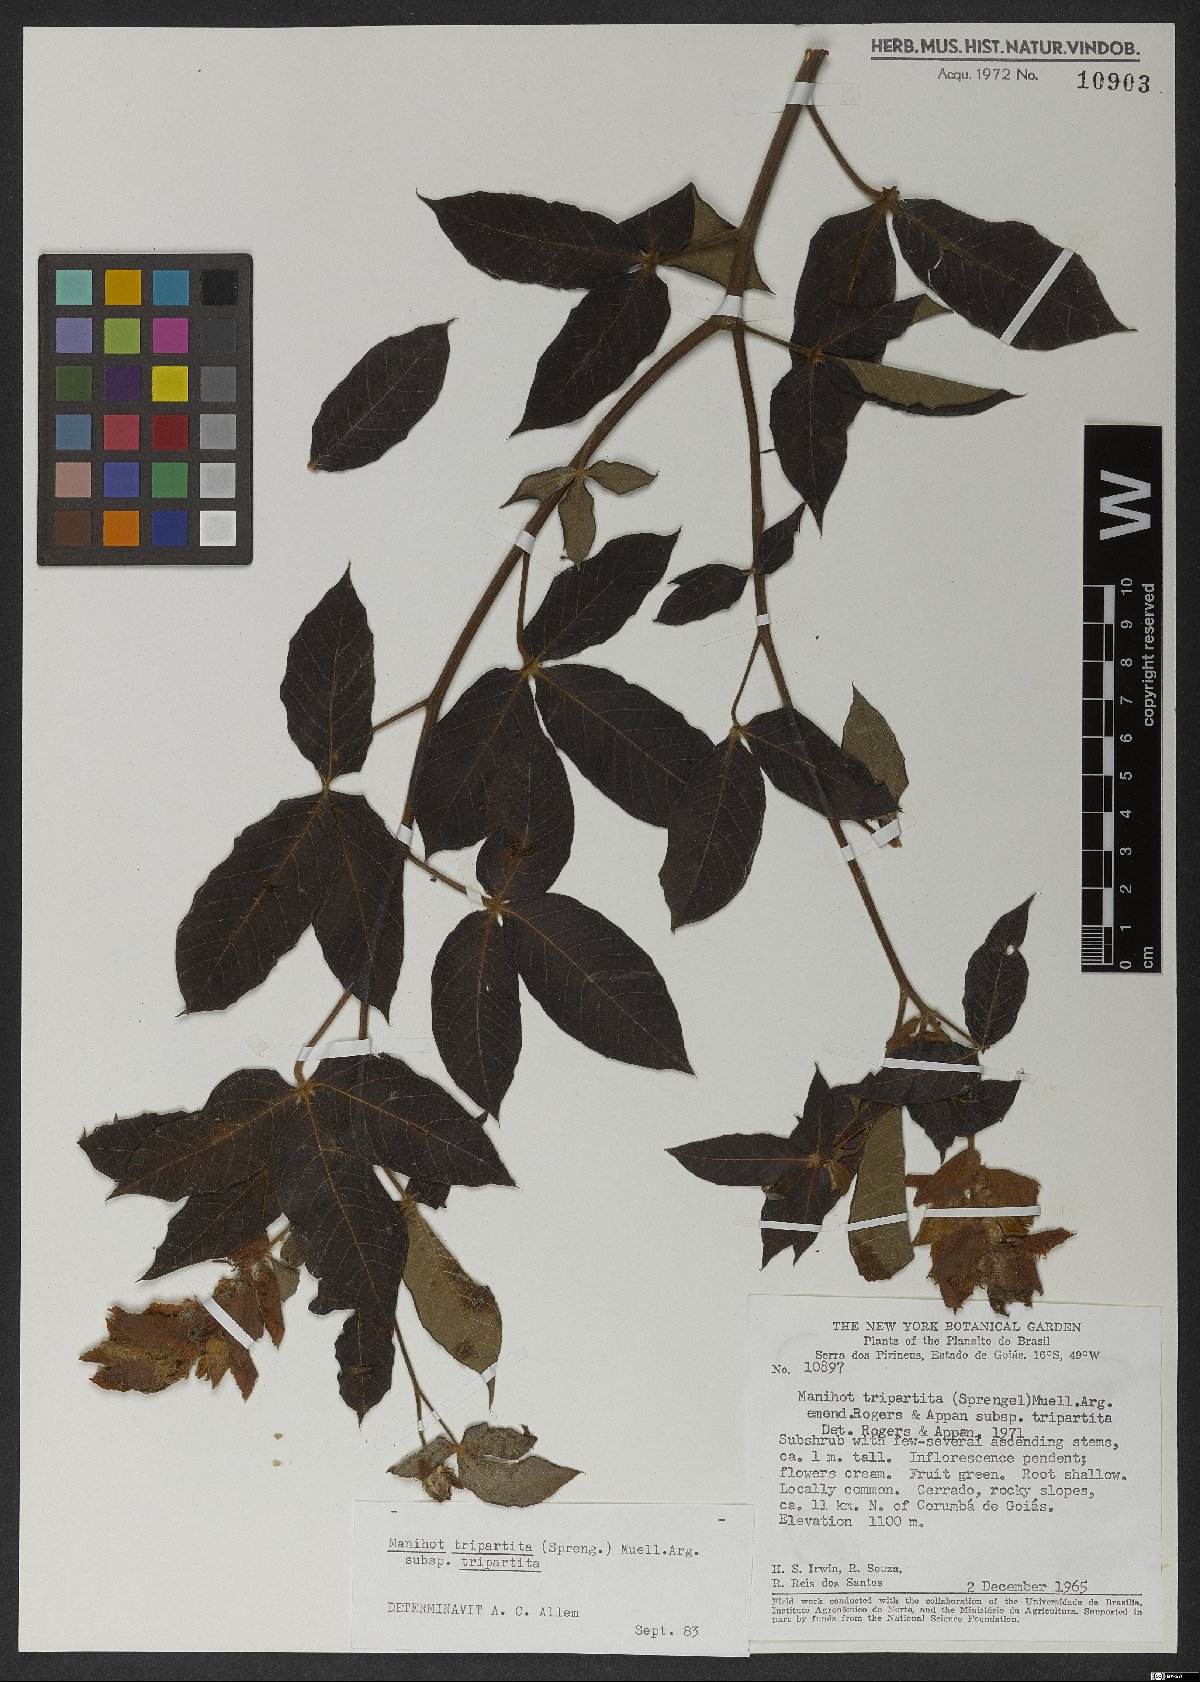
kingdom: Plantae
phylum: Tracheophyta
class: Magnoliopsida
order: Malpighiales
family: Euphorbiaceae
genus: Manihot
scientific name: Manihot tripartita
